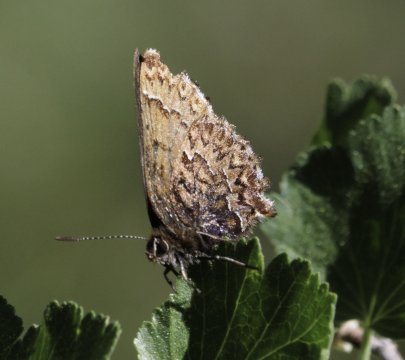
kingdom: Animalia
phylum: Arthropoda
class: Insecta
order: Lepidoptera
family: Lycaenidae
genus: Incisalia
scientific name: Incisalia eryphon
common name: Western Pine Elfin
